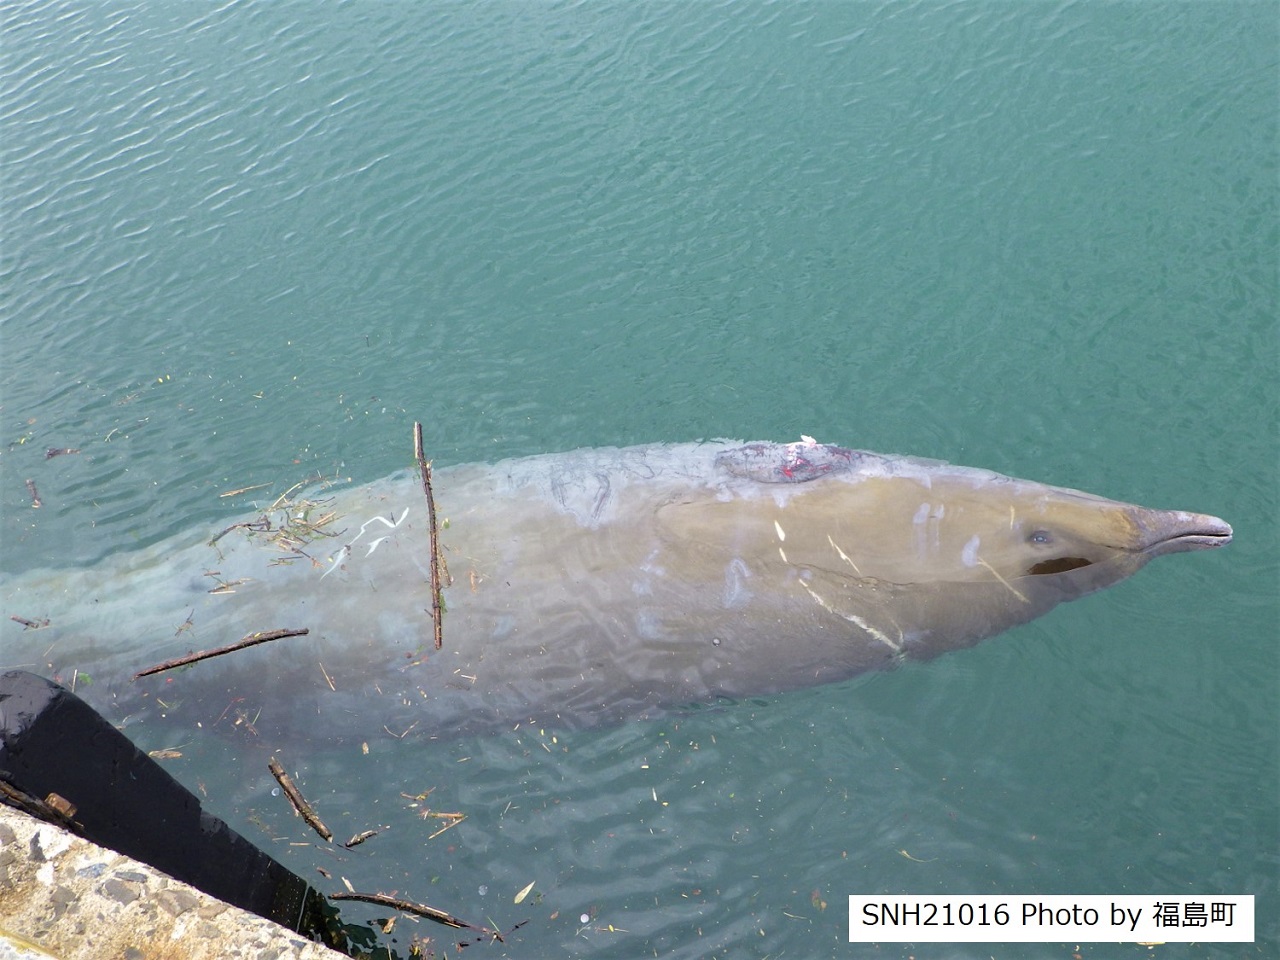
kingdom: Animalia
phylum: Chordata
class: Mammalia
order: Cetacea
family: Hyperoodontidae
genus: Mesoplodon
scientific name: Mesoplodon stejnegeri
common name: Stejneger's beaked whale
